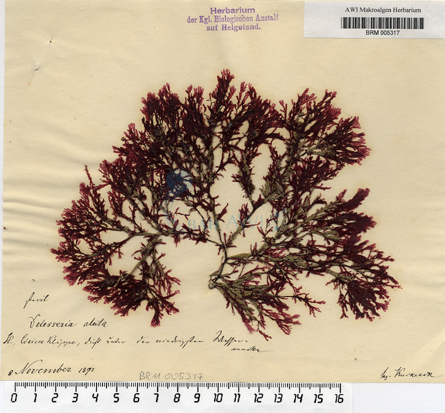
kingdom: Plantae
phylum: Rhodophyta
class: Florideophyceae
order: Ceramiales
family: Delesseriaceae
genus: Membranoptera
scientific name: Membranoptera alata
